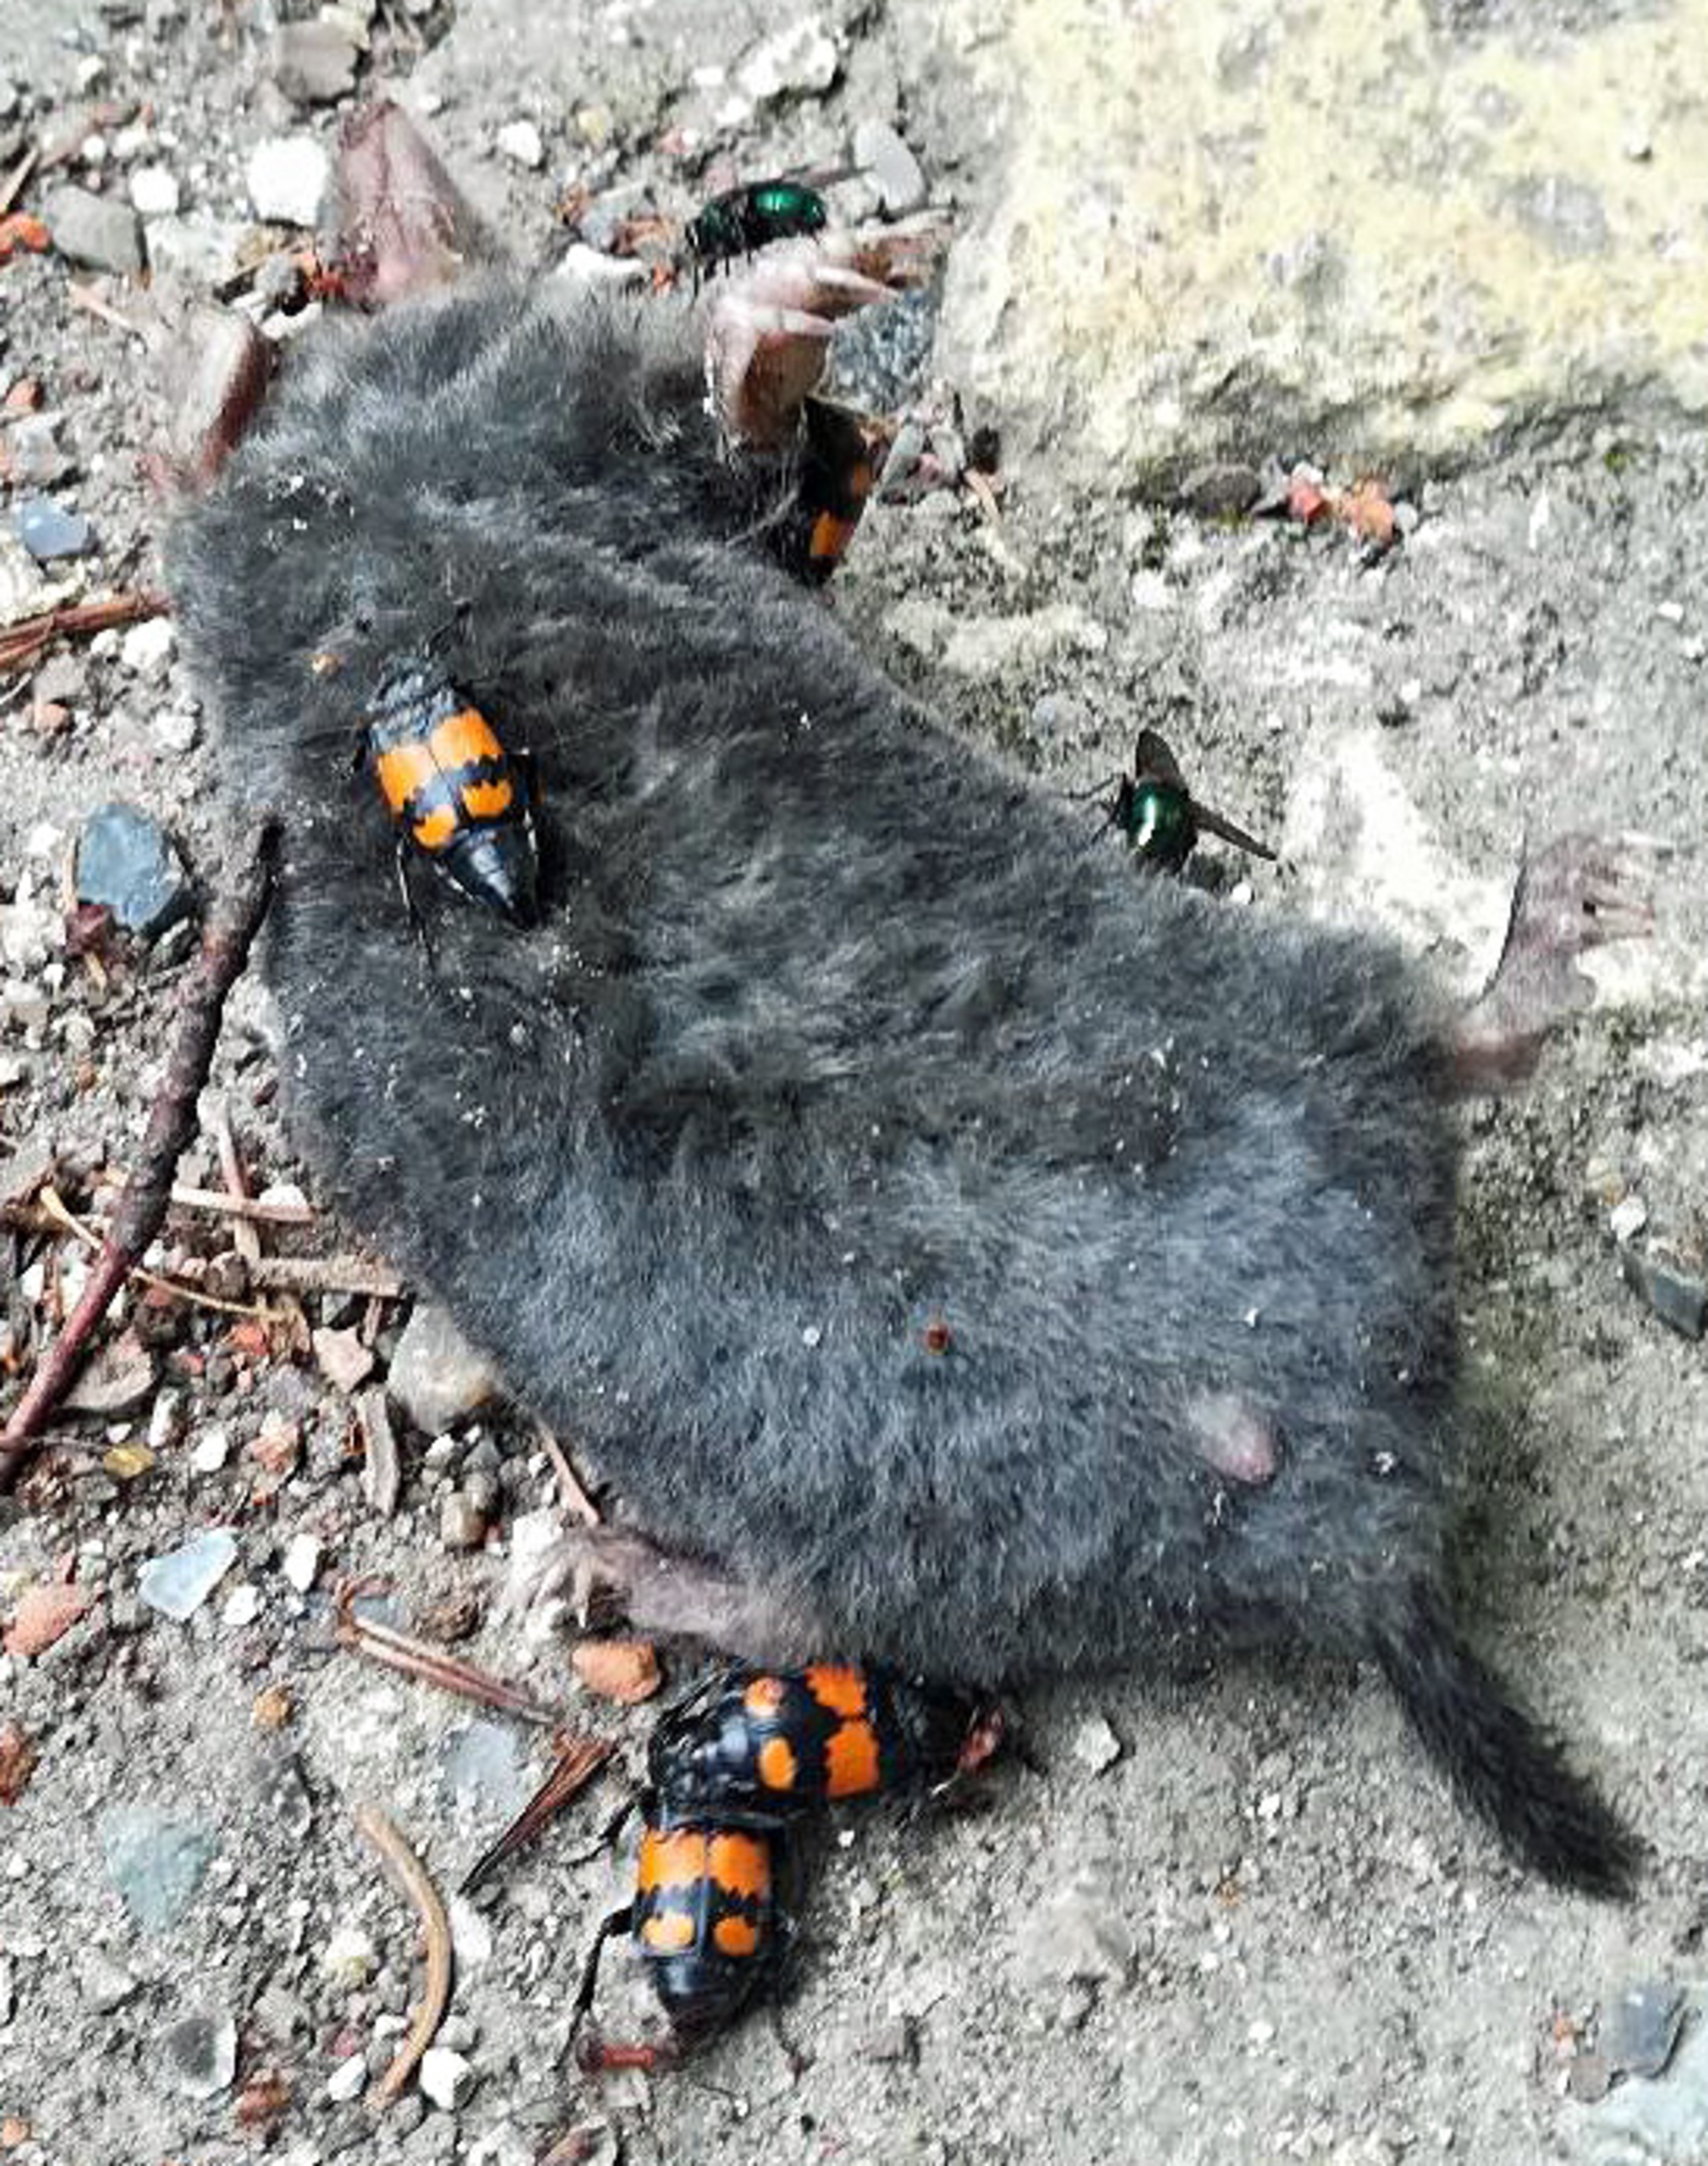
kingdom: Animalia
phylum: Arthropoda
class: Insecta
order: Coleoptera
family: Staphylinidae
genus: Nicrophorus
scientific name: Nicrophorus vespilloides
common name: Sortkøllet ådselgraver
